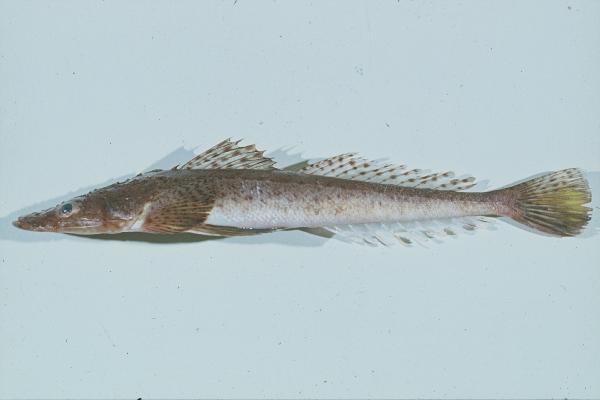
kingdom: Animalia
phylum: Chordata
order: Scorpaeniformes
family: Platycephalidae
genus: Cociella
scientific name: Cociella heemstrai
